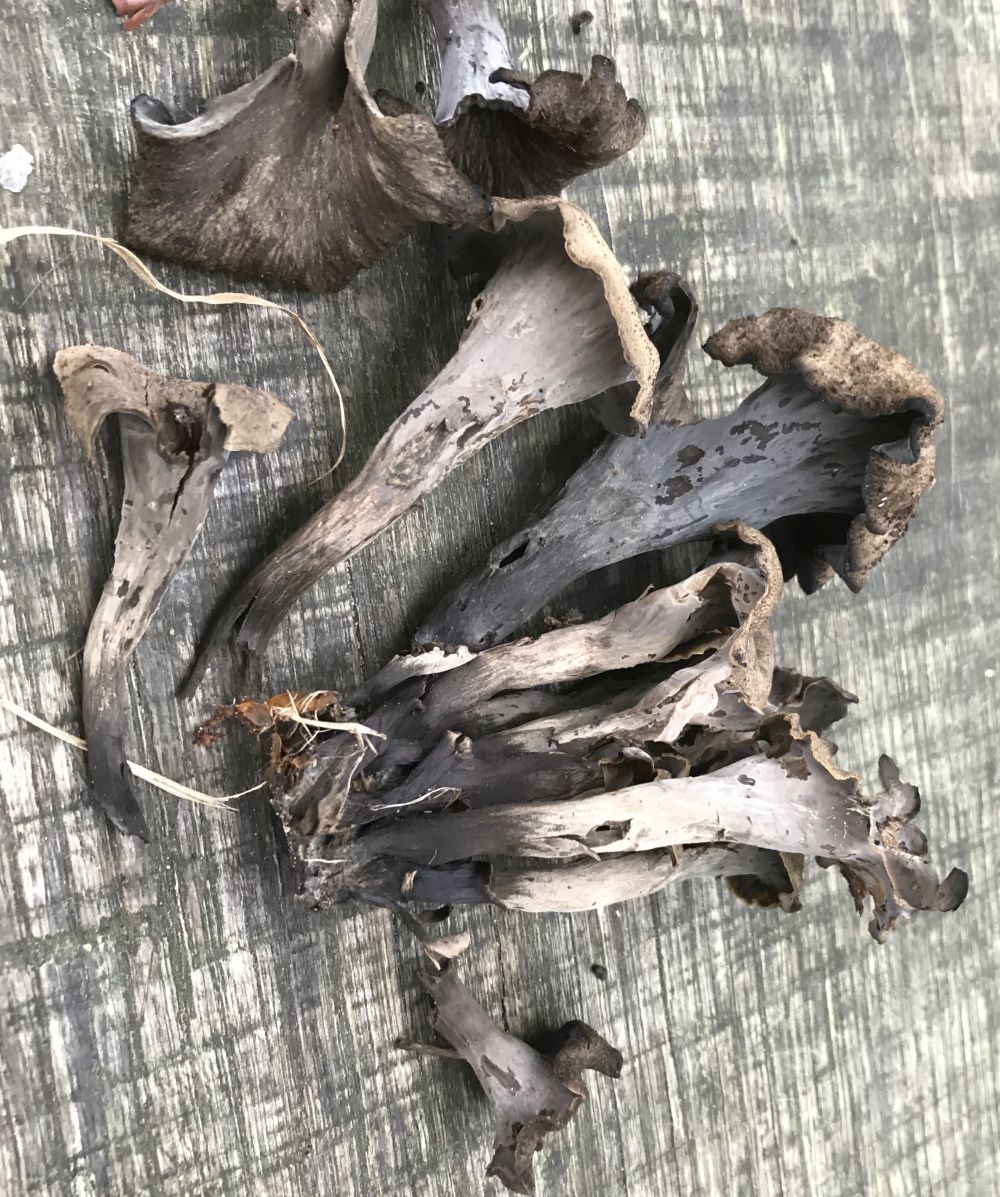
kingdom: Fungi
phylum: Basidiomycota
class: Agaricomycetes
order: Cantharellales
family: Hydnaceae
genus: Craterellus
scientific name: Craterellus cornucopioides
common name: trompetsvamp
